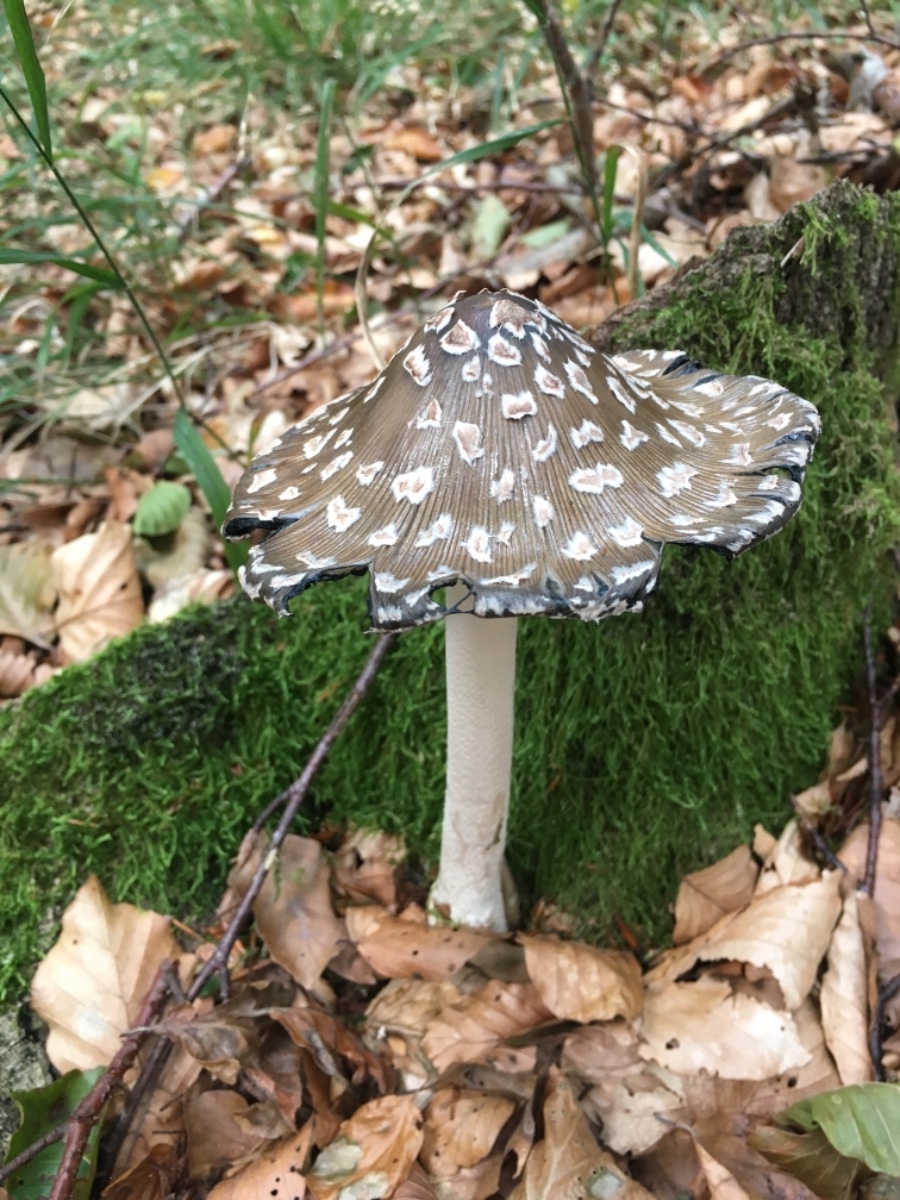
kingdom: Fungi
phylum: Basidiomycota
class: Agaricomycetes
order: Agaricales
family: Psathyrellaceae
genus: Coprinopsis
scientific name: Coprinopsis picacea
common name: skade-blækhat
